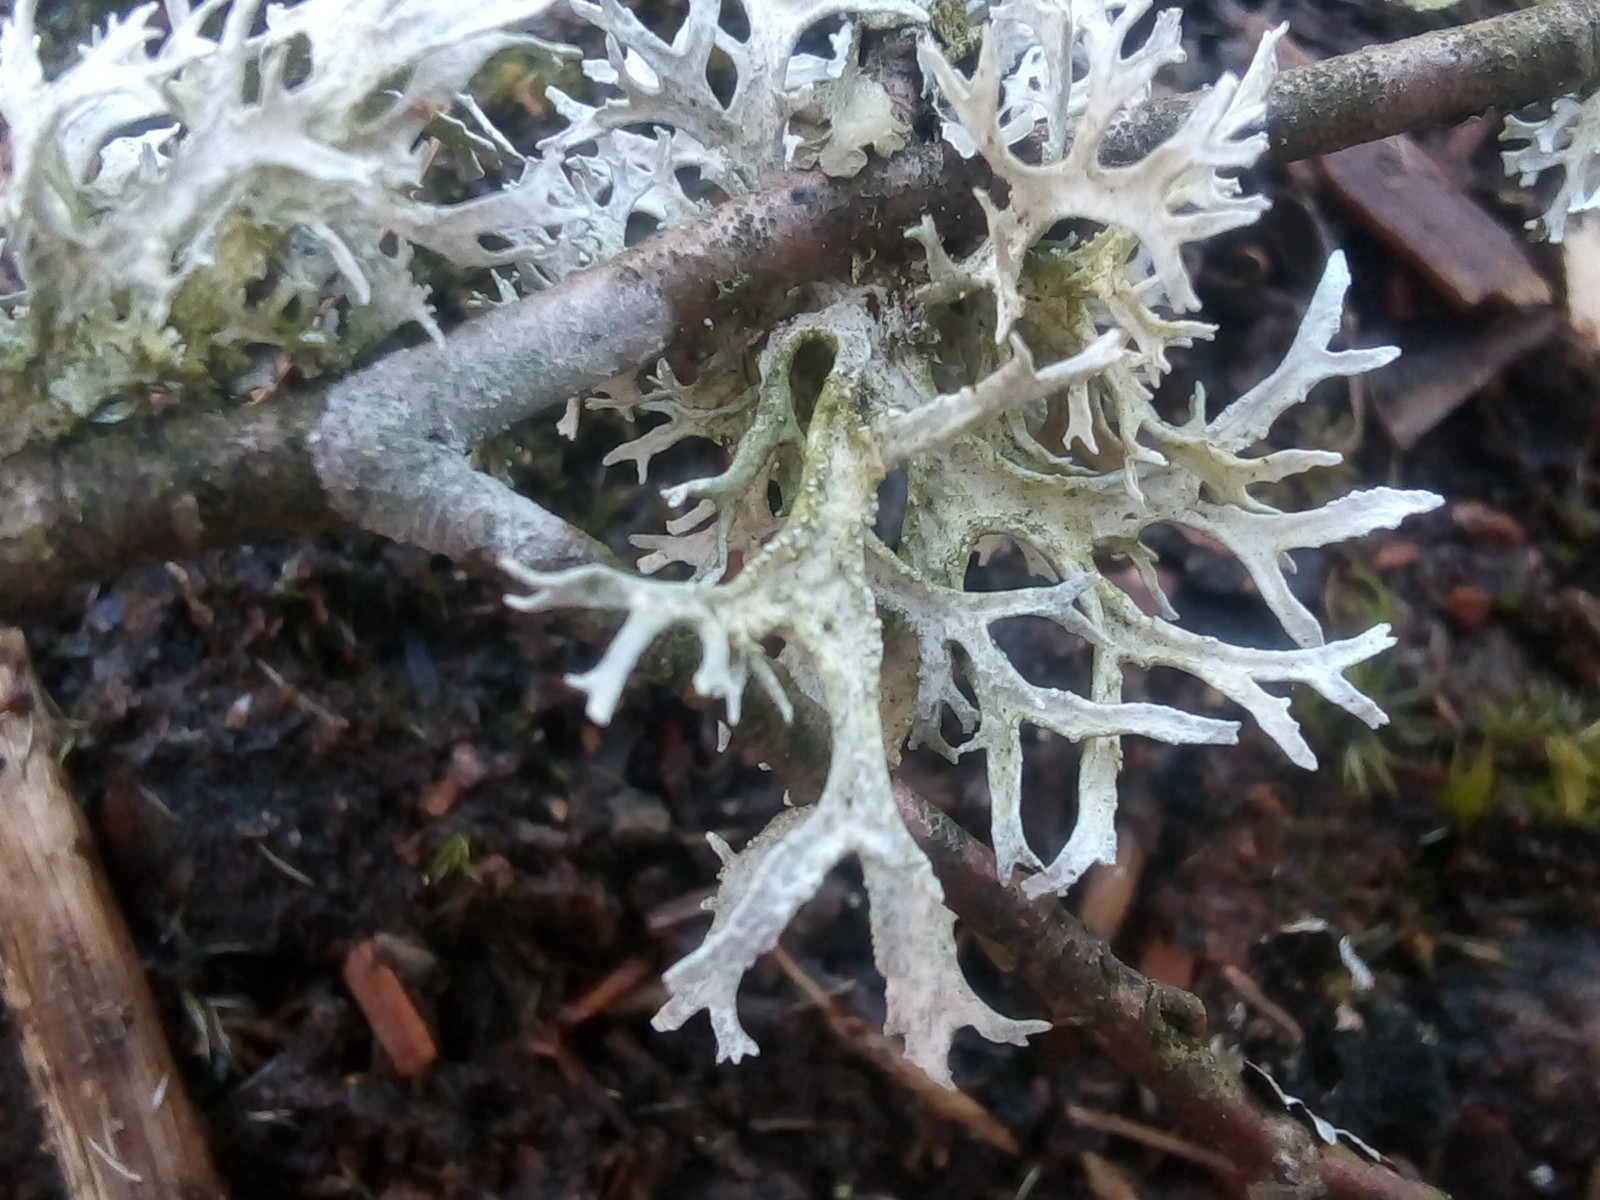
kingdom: Fungi
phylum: Ascomycota
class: Lecanoromycetes
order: Lecanorales
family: Parmeliaceae
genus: Evernia
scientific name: Evernia prunastri
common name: almindelig slåenlav
